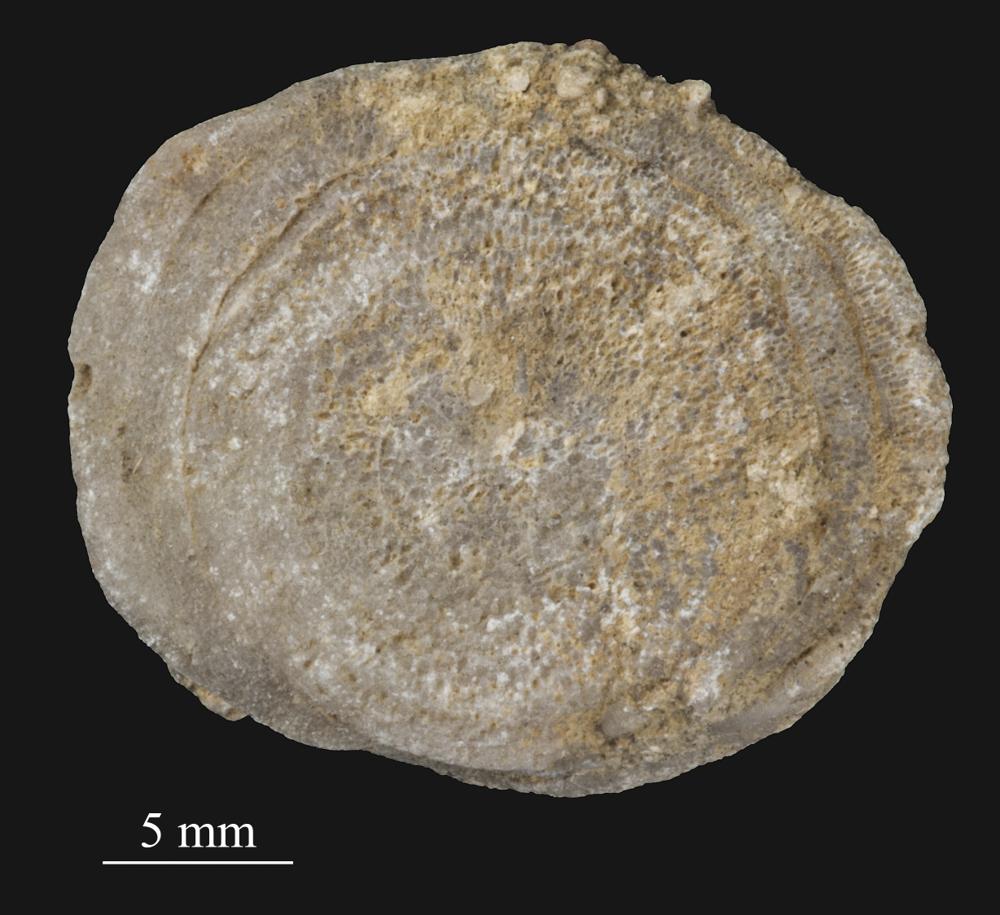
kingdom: Animalia
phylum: Bryozoa
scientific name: Bryozoa
